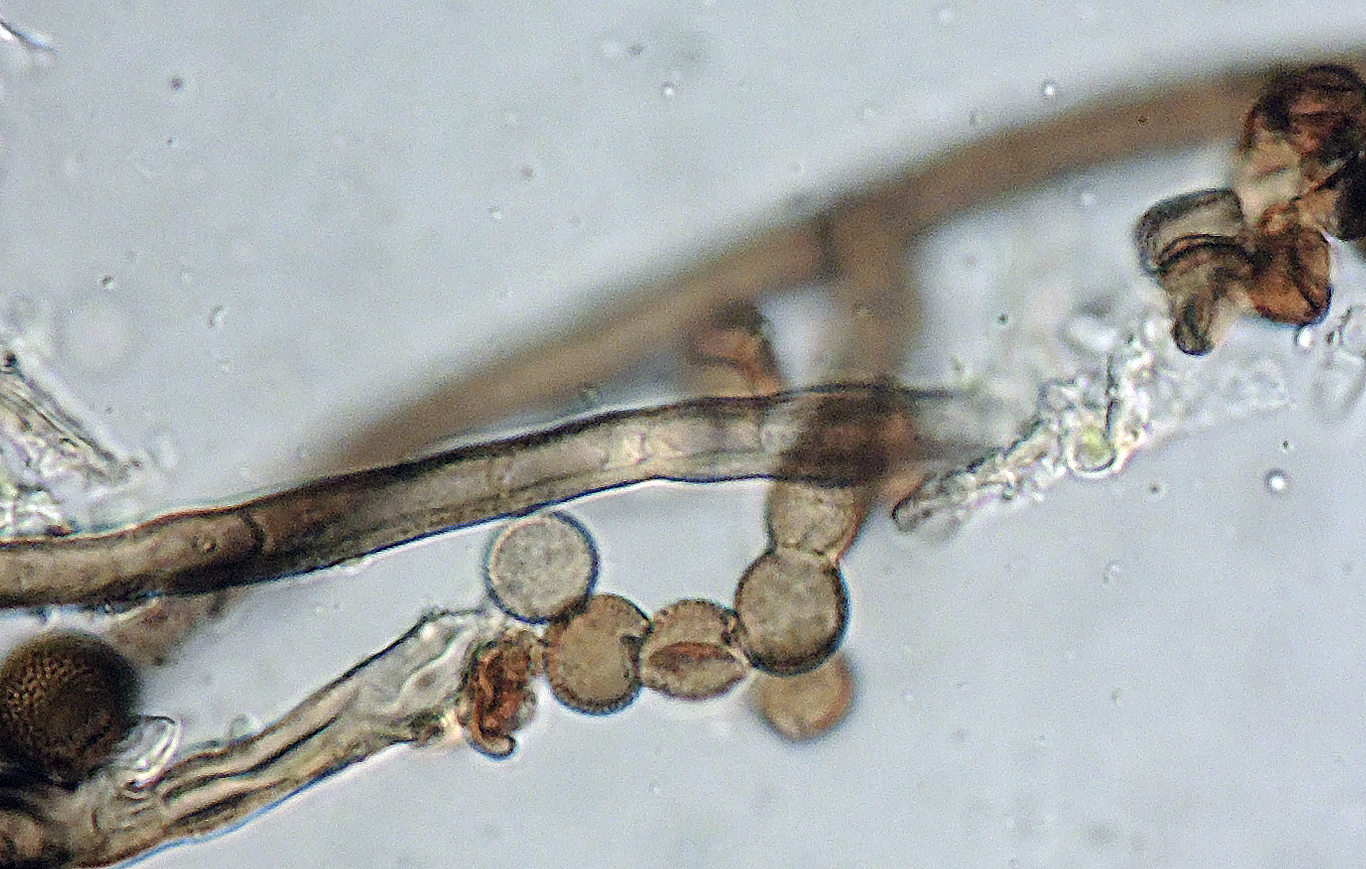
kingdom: Fungi
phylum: Ascomycota
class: Dothideomycetes
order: Pleosporales
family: Periconiaceae
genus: Periconia
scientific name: Periconia hispidula
